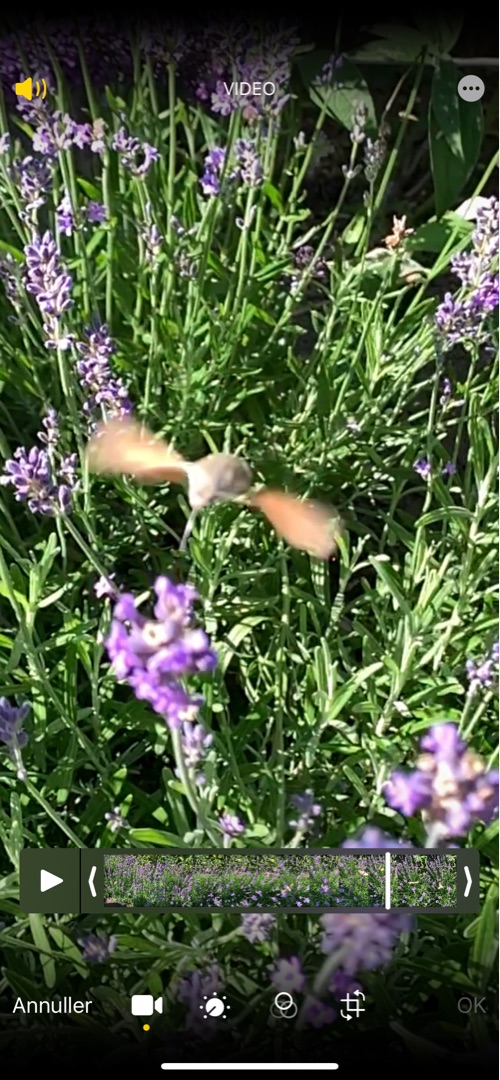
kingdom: Animalia
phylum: Arthropoda
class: Insecta
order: Lepidoptera
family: Sphingidae
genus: Macroglossum
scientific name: Macroglossum stellatarum
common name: Duehale
